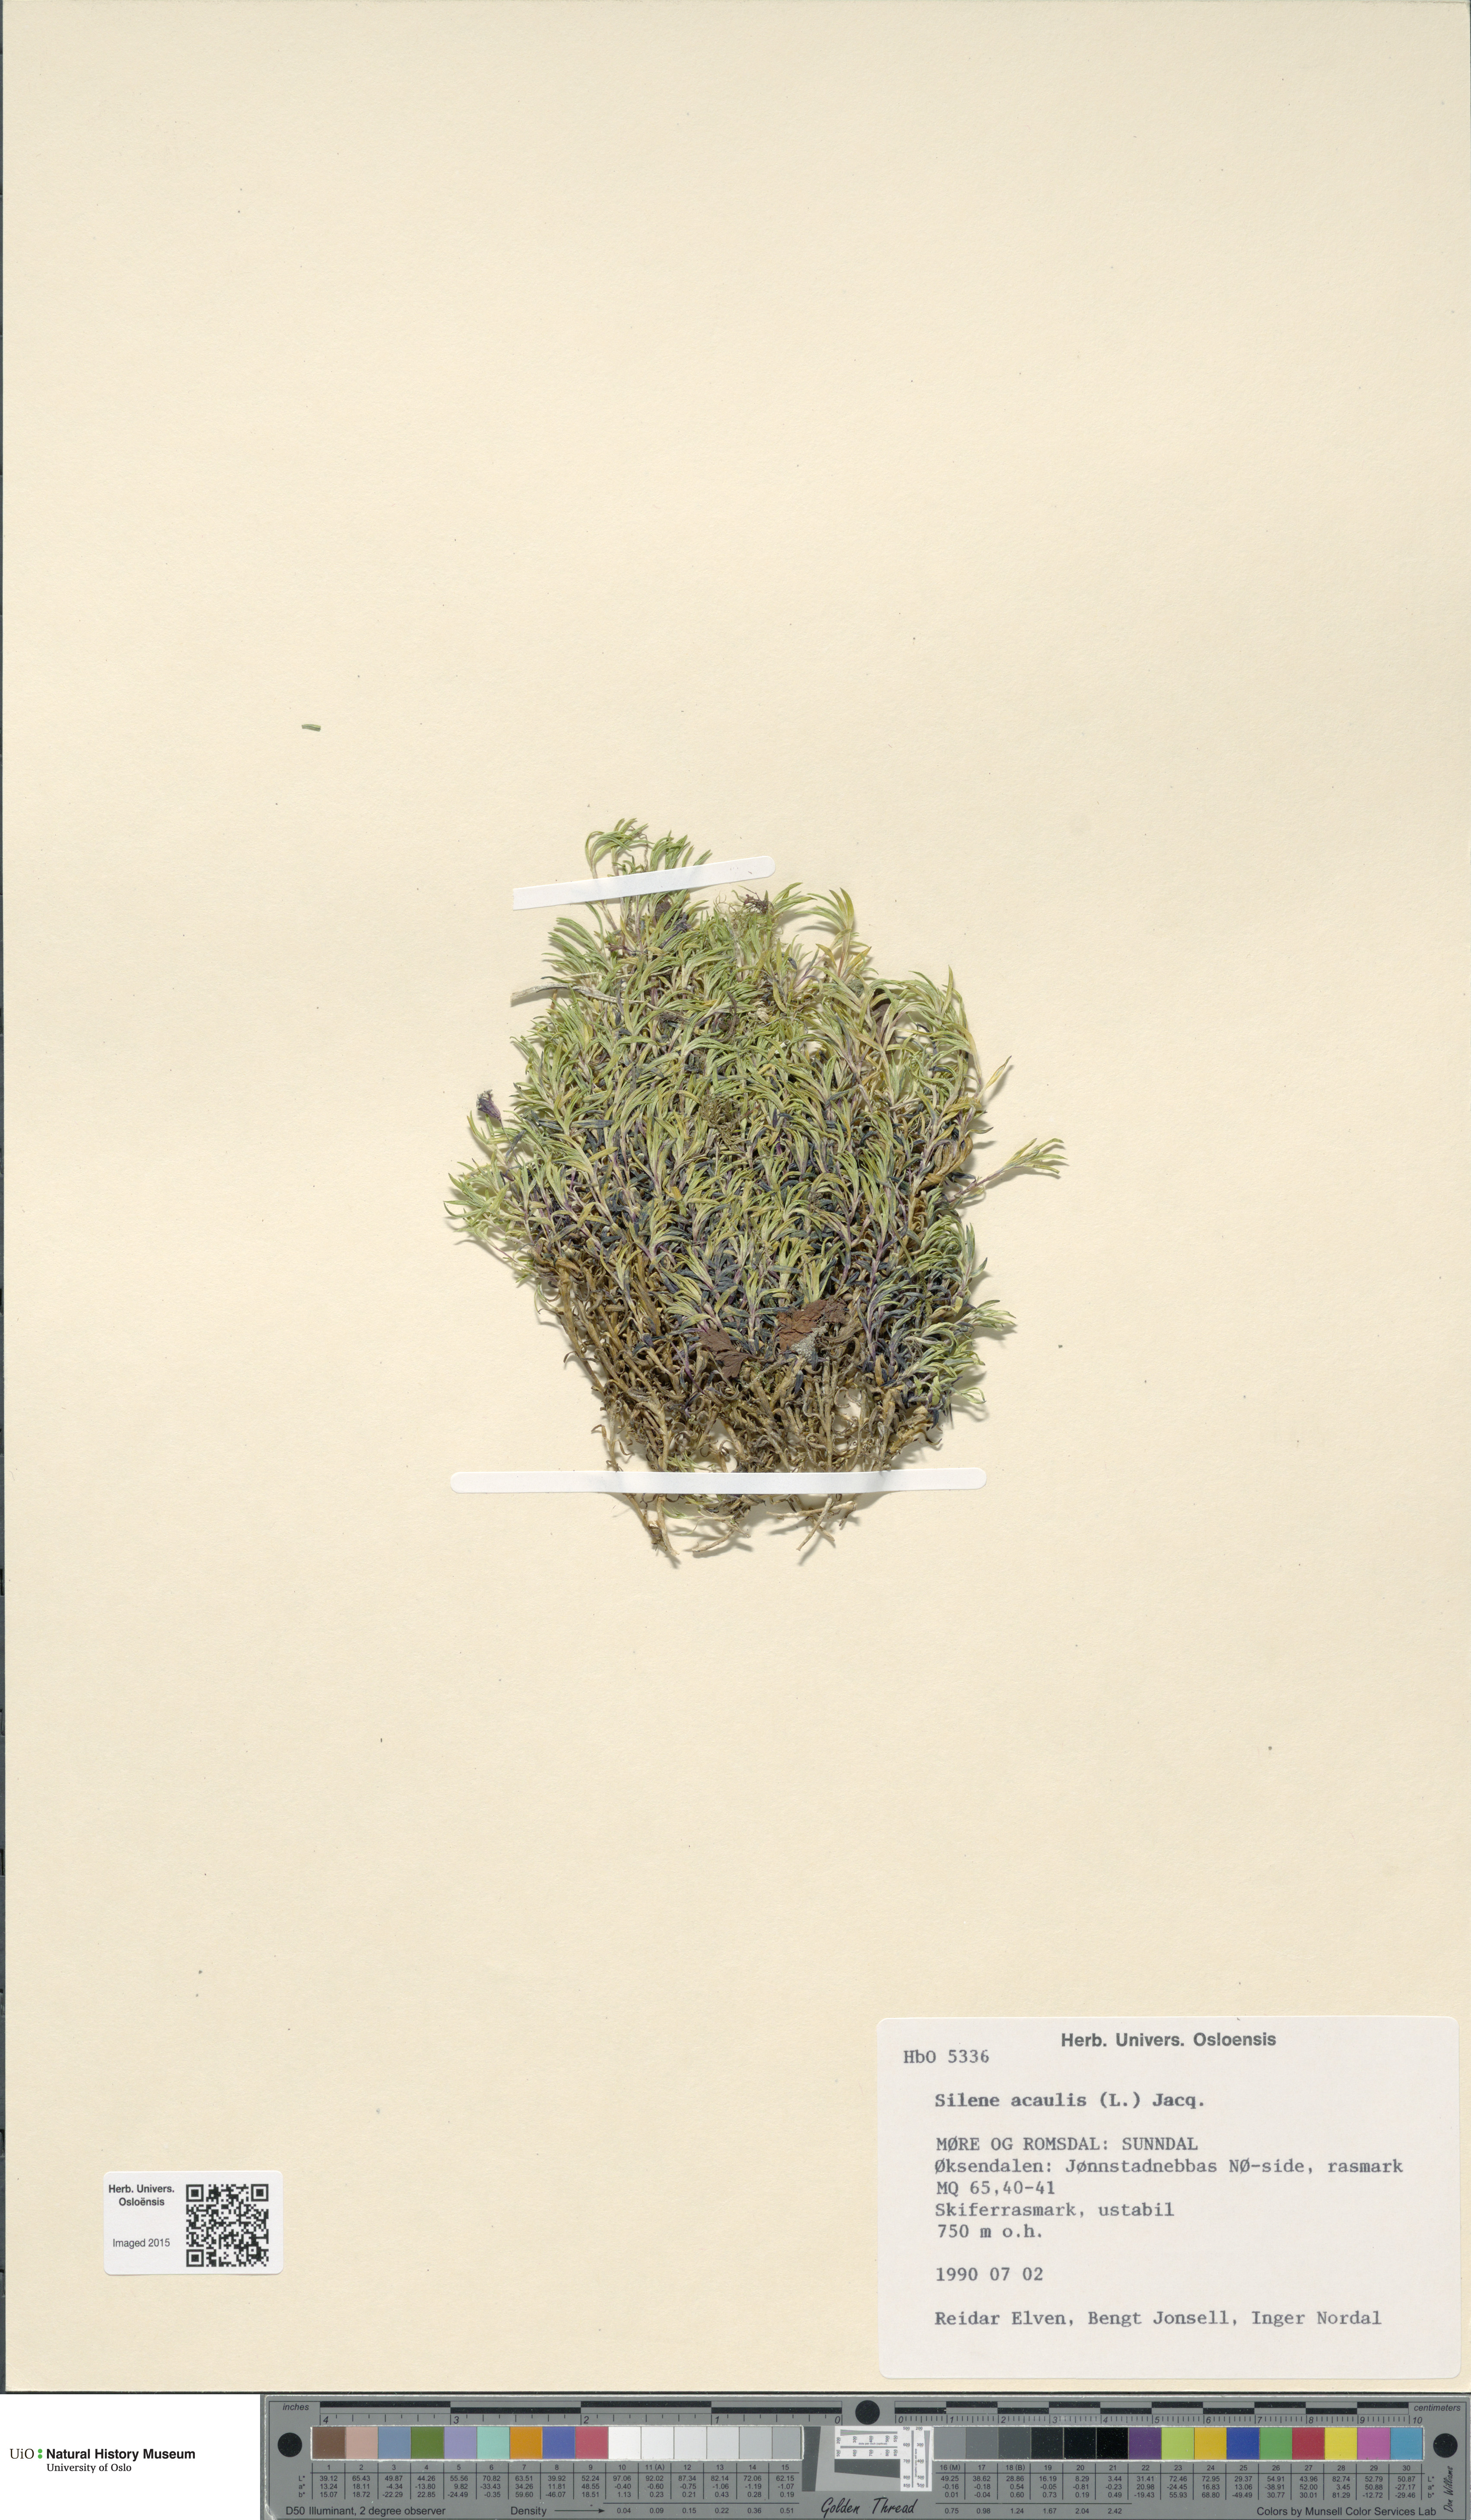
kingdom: Plantae
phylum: Tracheophyta
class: Magnoliopsida
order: Caryophyllales
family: Caryophyllaceae
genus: Silene
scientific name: Silene acaulis
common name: Moss campion
